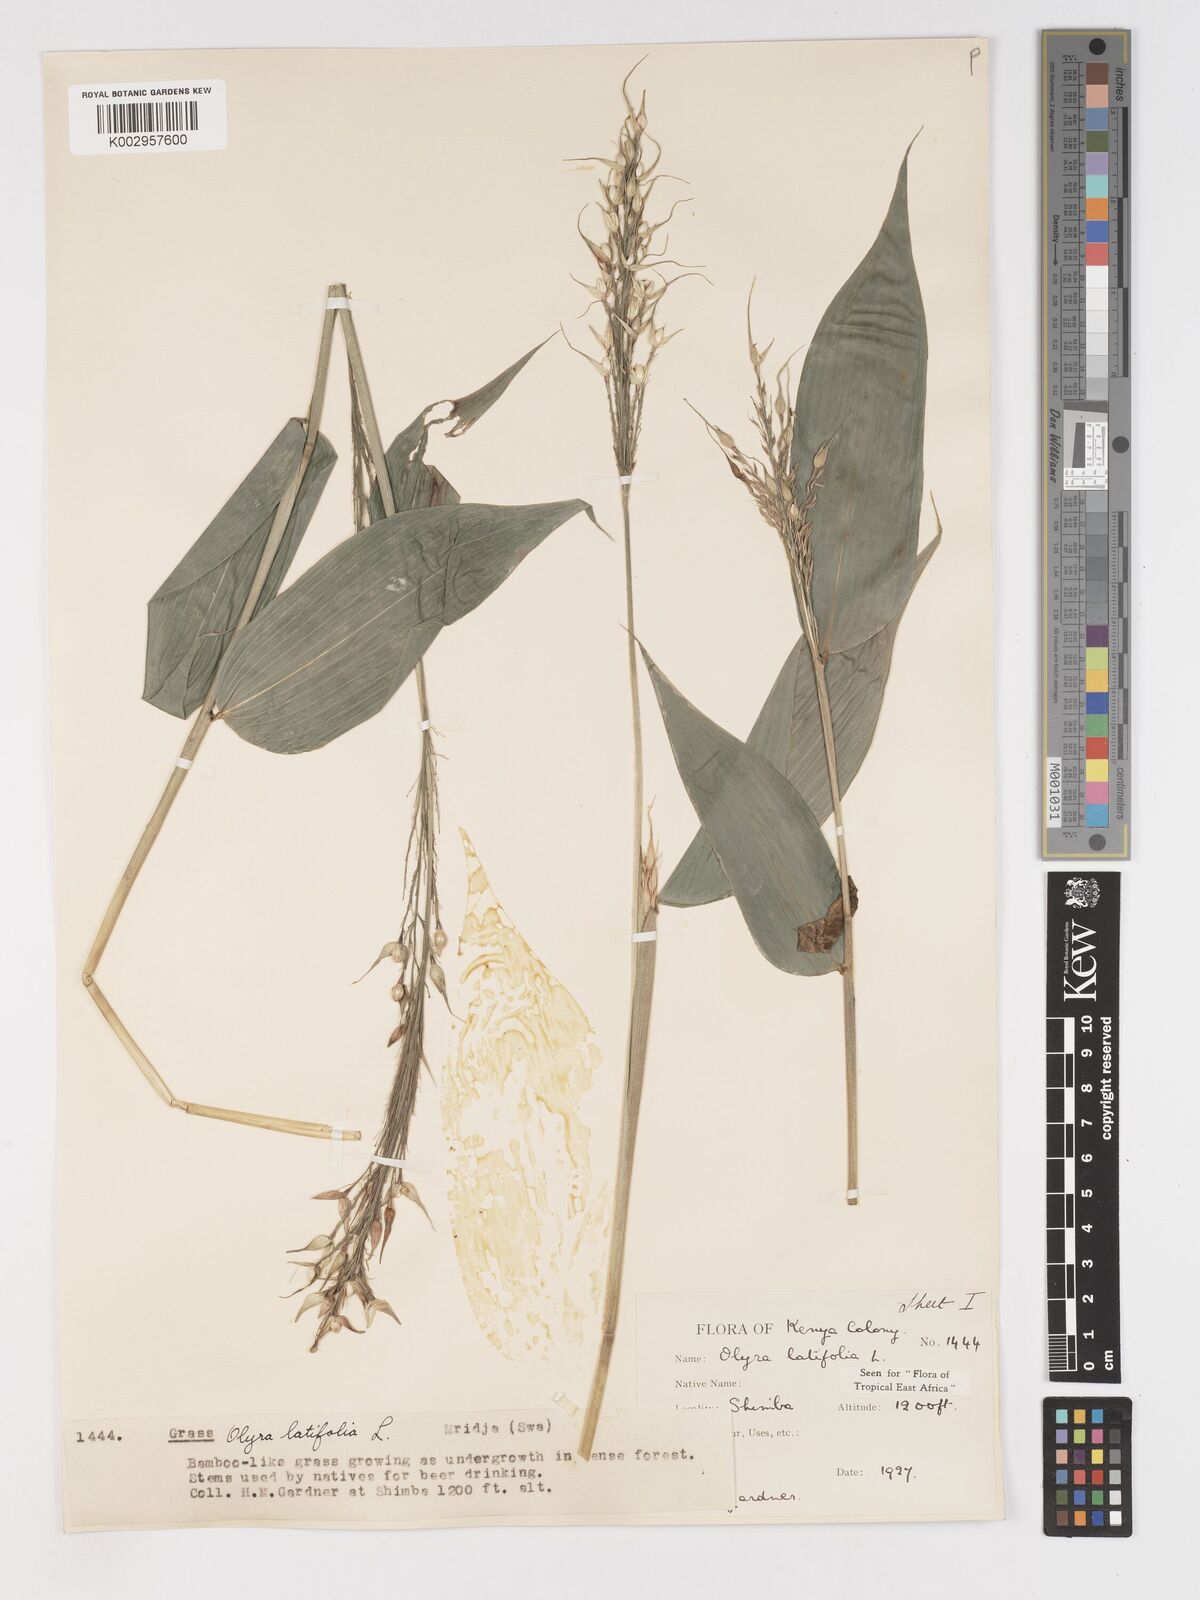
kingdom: Plantae
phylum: Tracheophyta
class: Liliopsida
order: Poales
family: Poaceae
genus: Olyra
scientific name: Olyra latifolia
